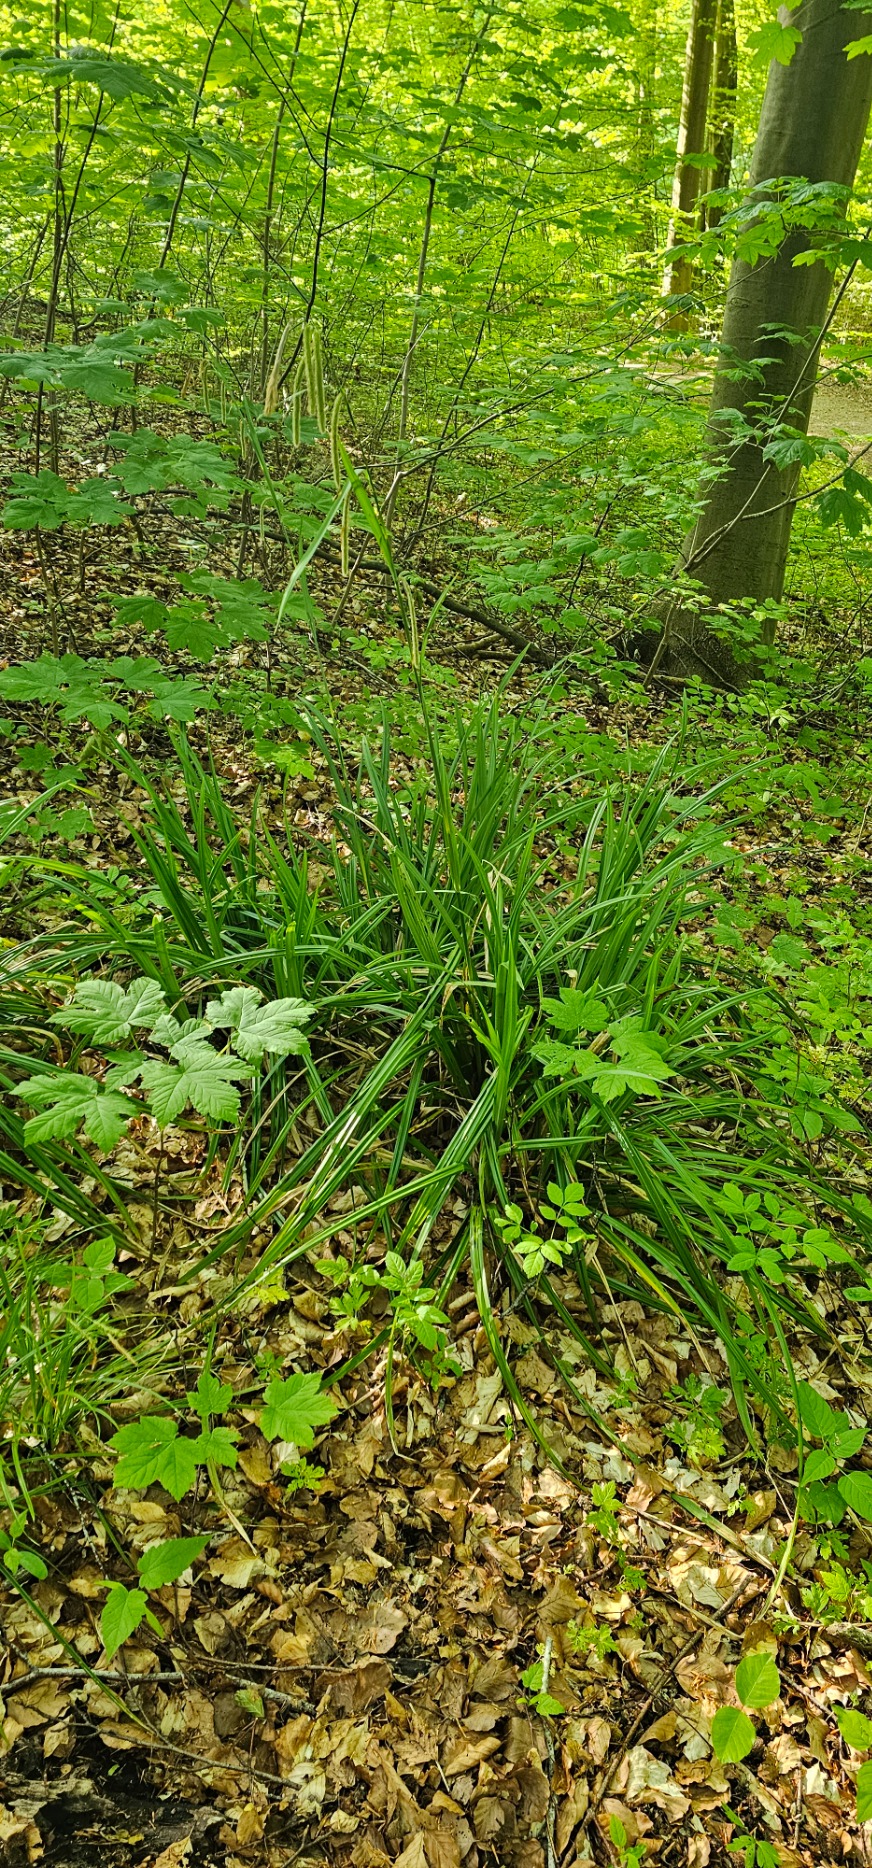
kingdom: Plantae
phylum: Tracheophyta
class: Liliopsida
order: Poales
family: Cyperaceae
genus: Carex
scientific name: Carex pendula
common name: Kæmpe-star
